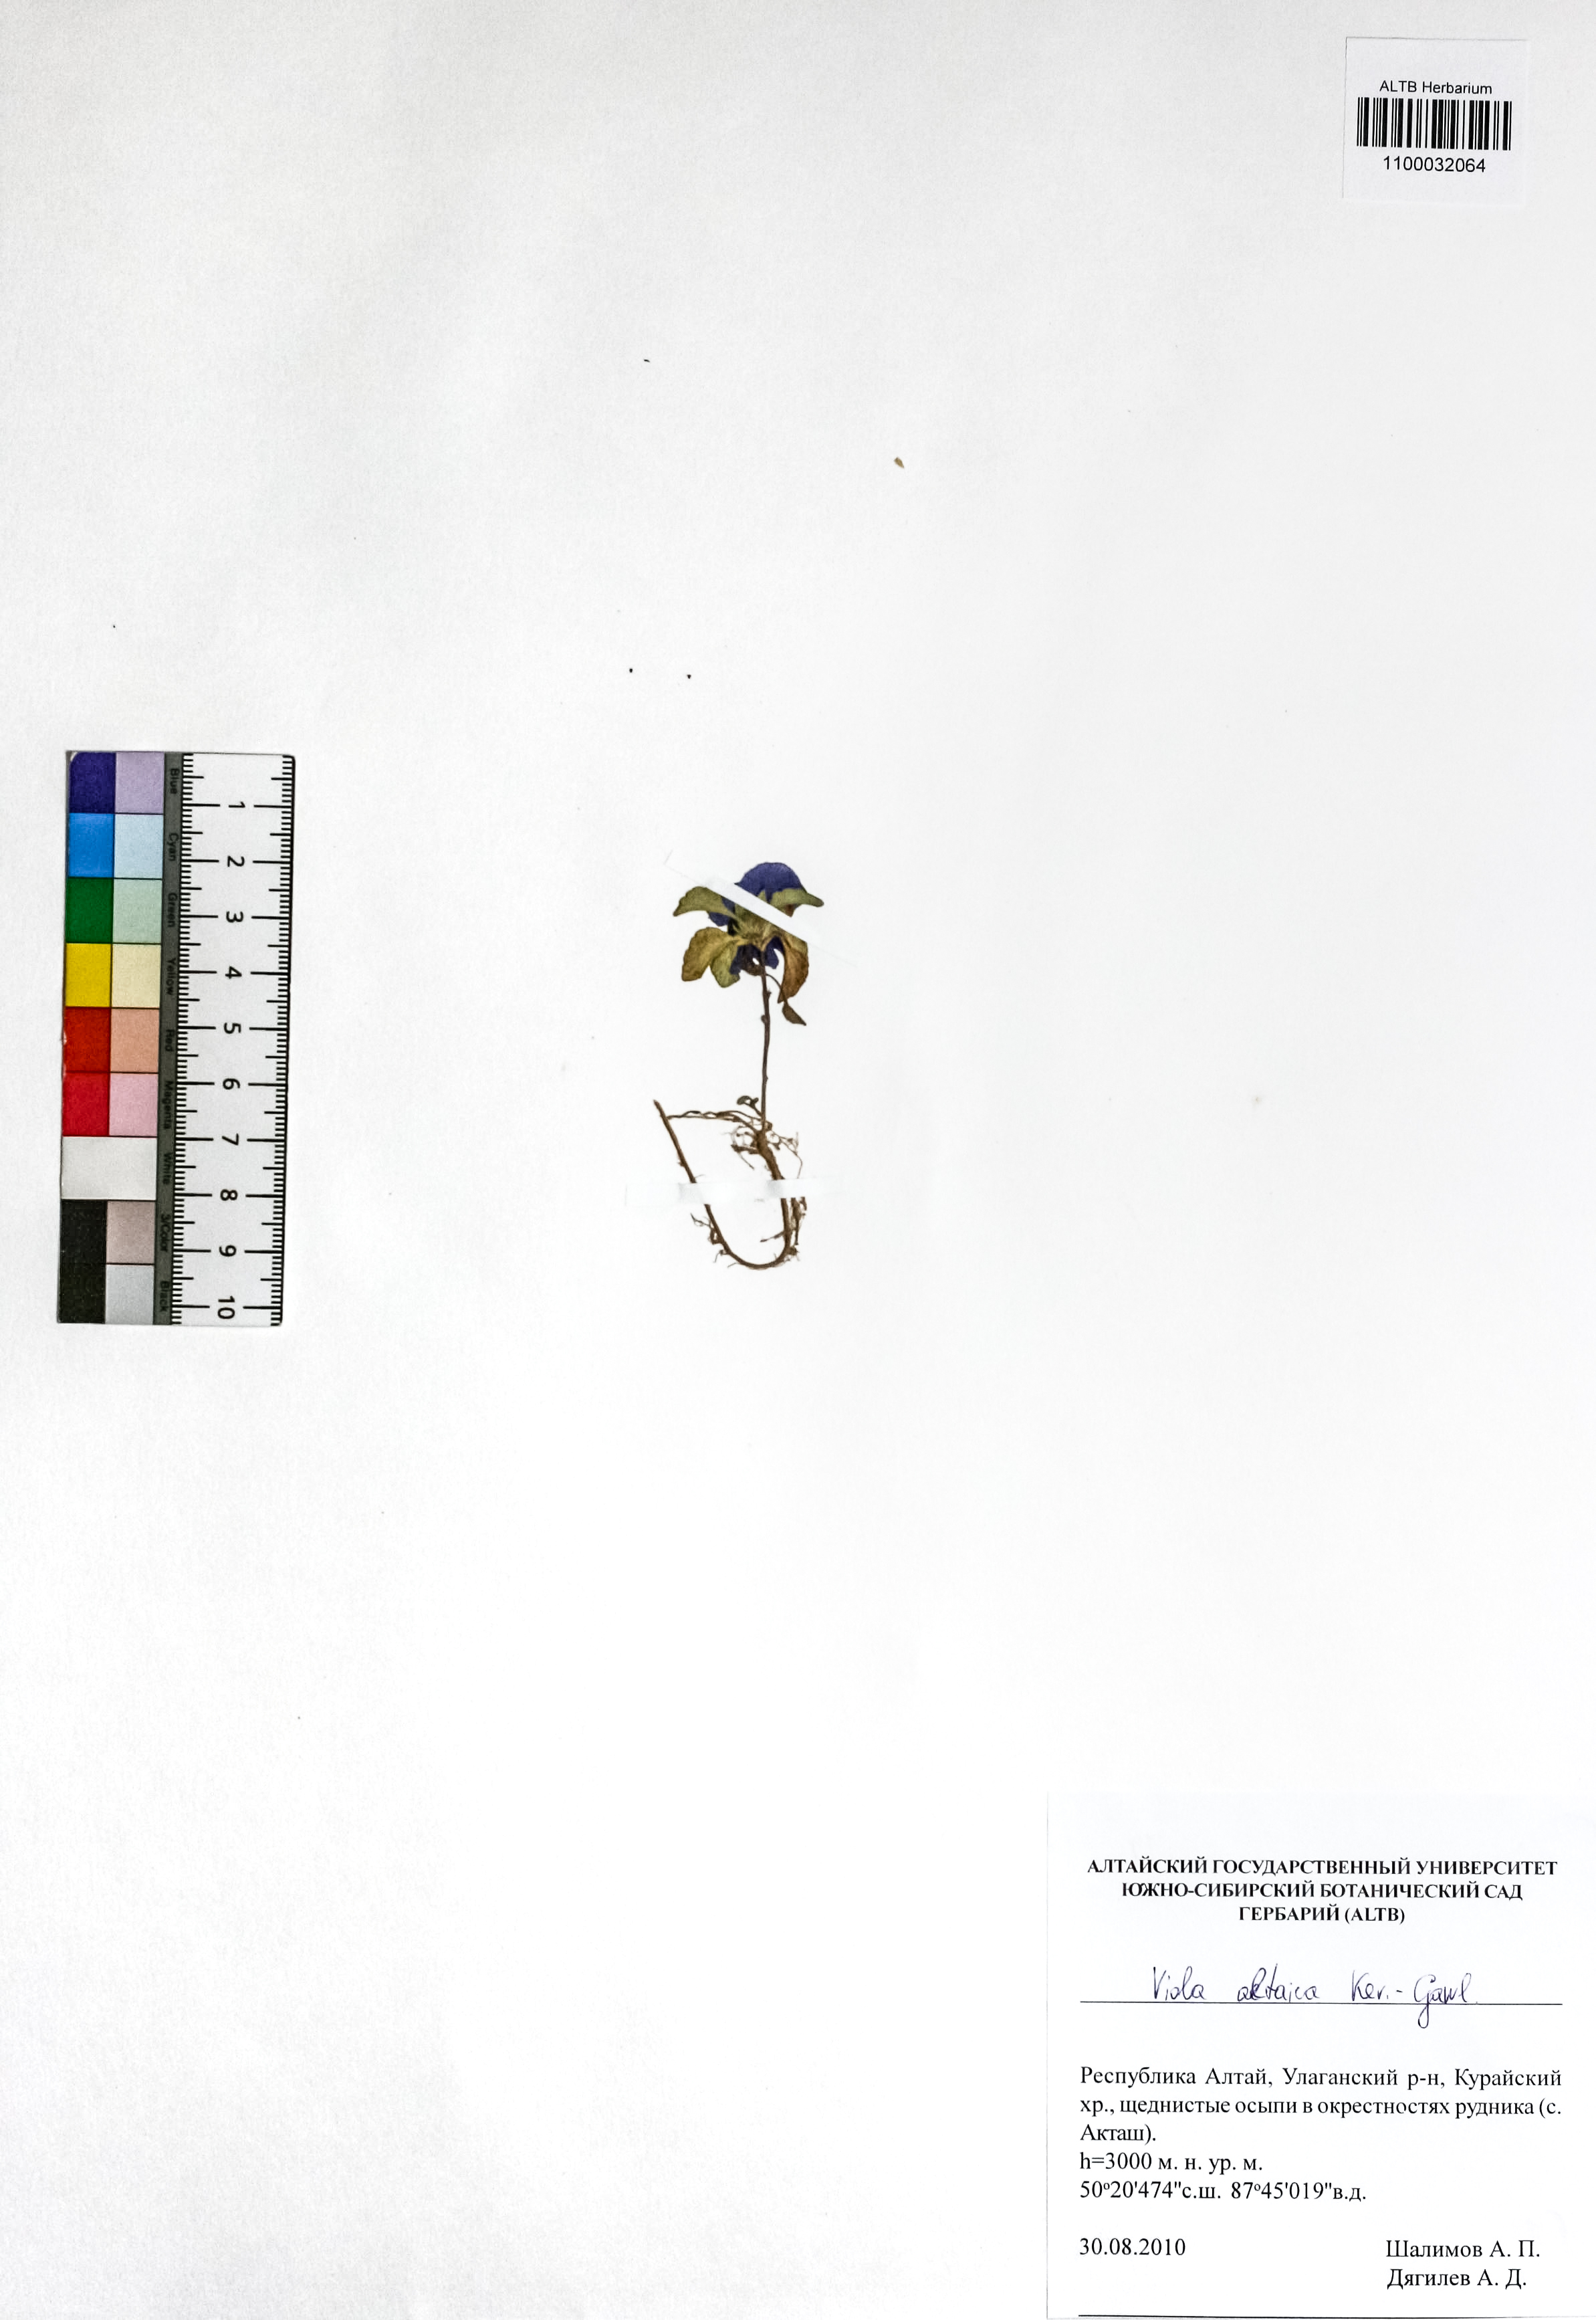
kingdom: Plantae
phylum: Tracheophyta
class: Magnoliopsida
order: Malpighiales
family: Violaceae
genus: Viola
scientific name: Viola altaica
